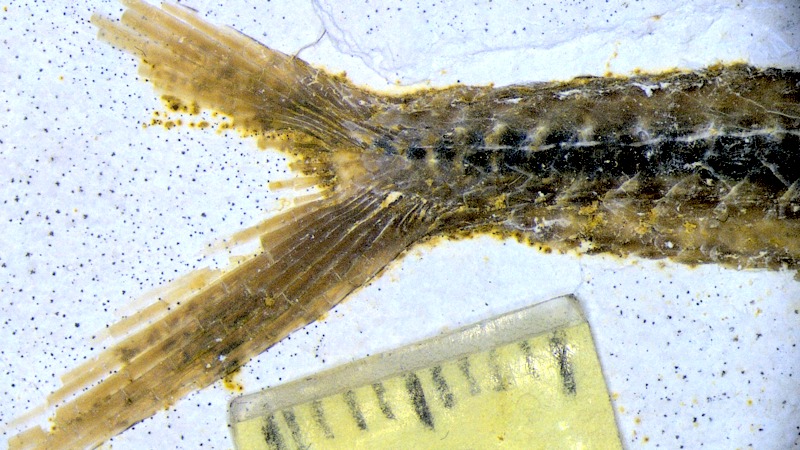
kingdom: Animalia
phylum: Chordata
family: Aspidorhynchidae
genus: Belonostomus
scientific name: Belonostomus kochii
